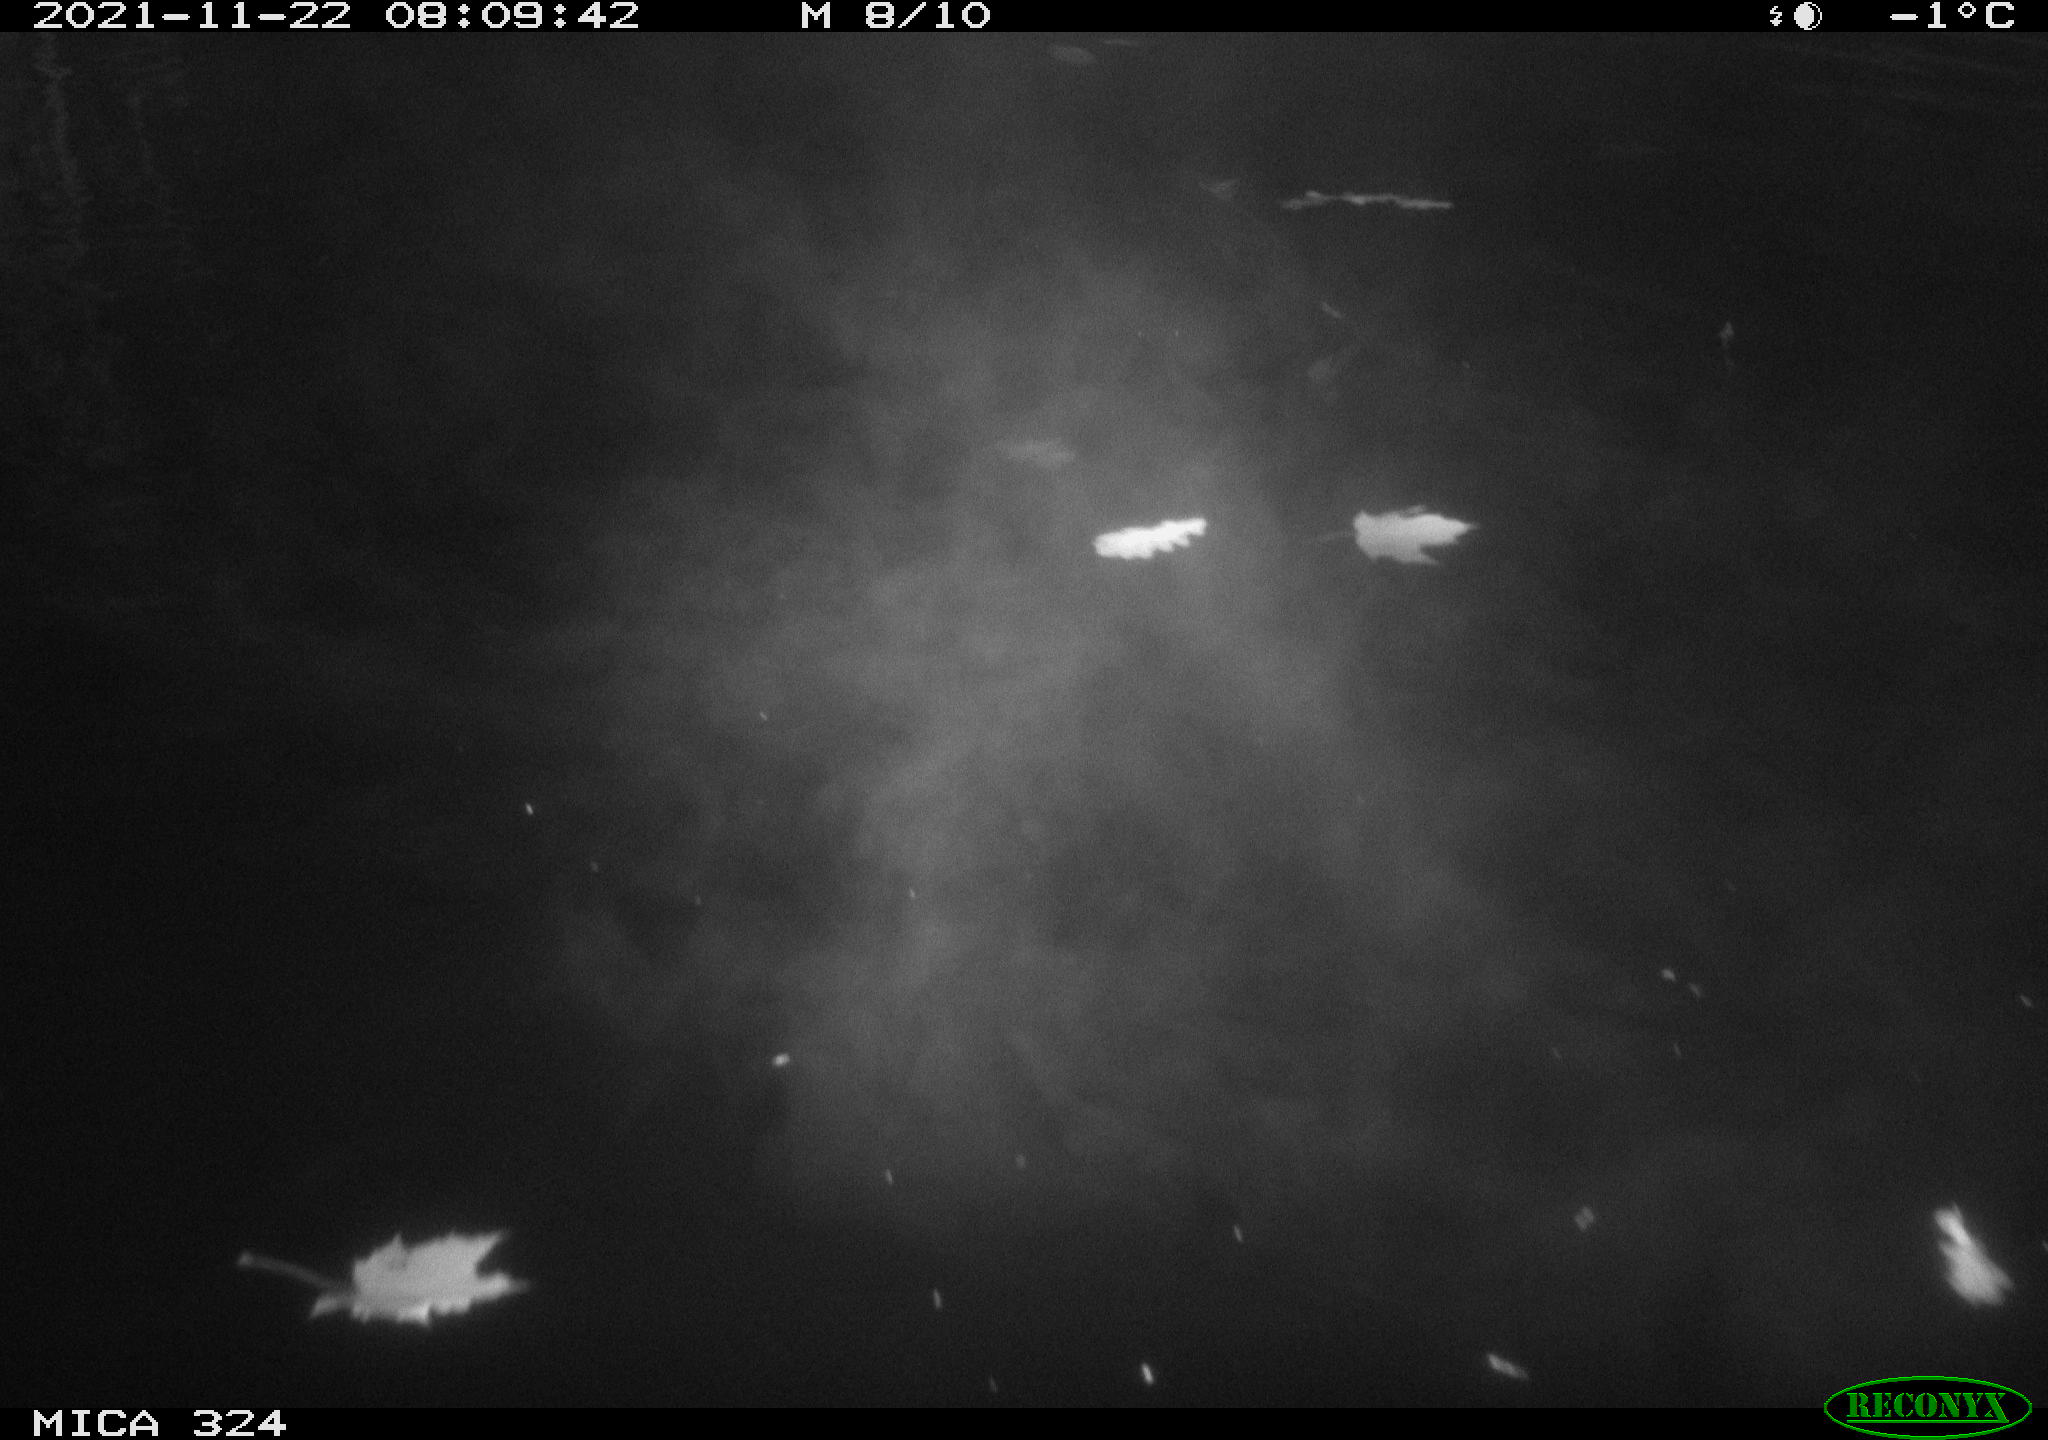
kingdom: Animalia
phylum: Chordata
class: Mammalia
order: Rodentia
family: Cricetidae
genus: Ondatra
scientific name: Ondatra zibethicus
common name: Muskrat
